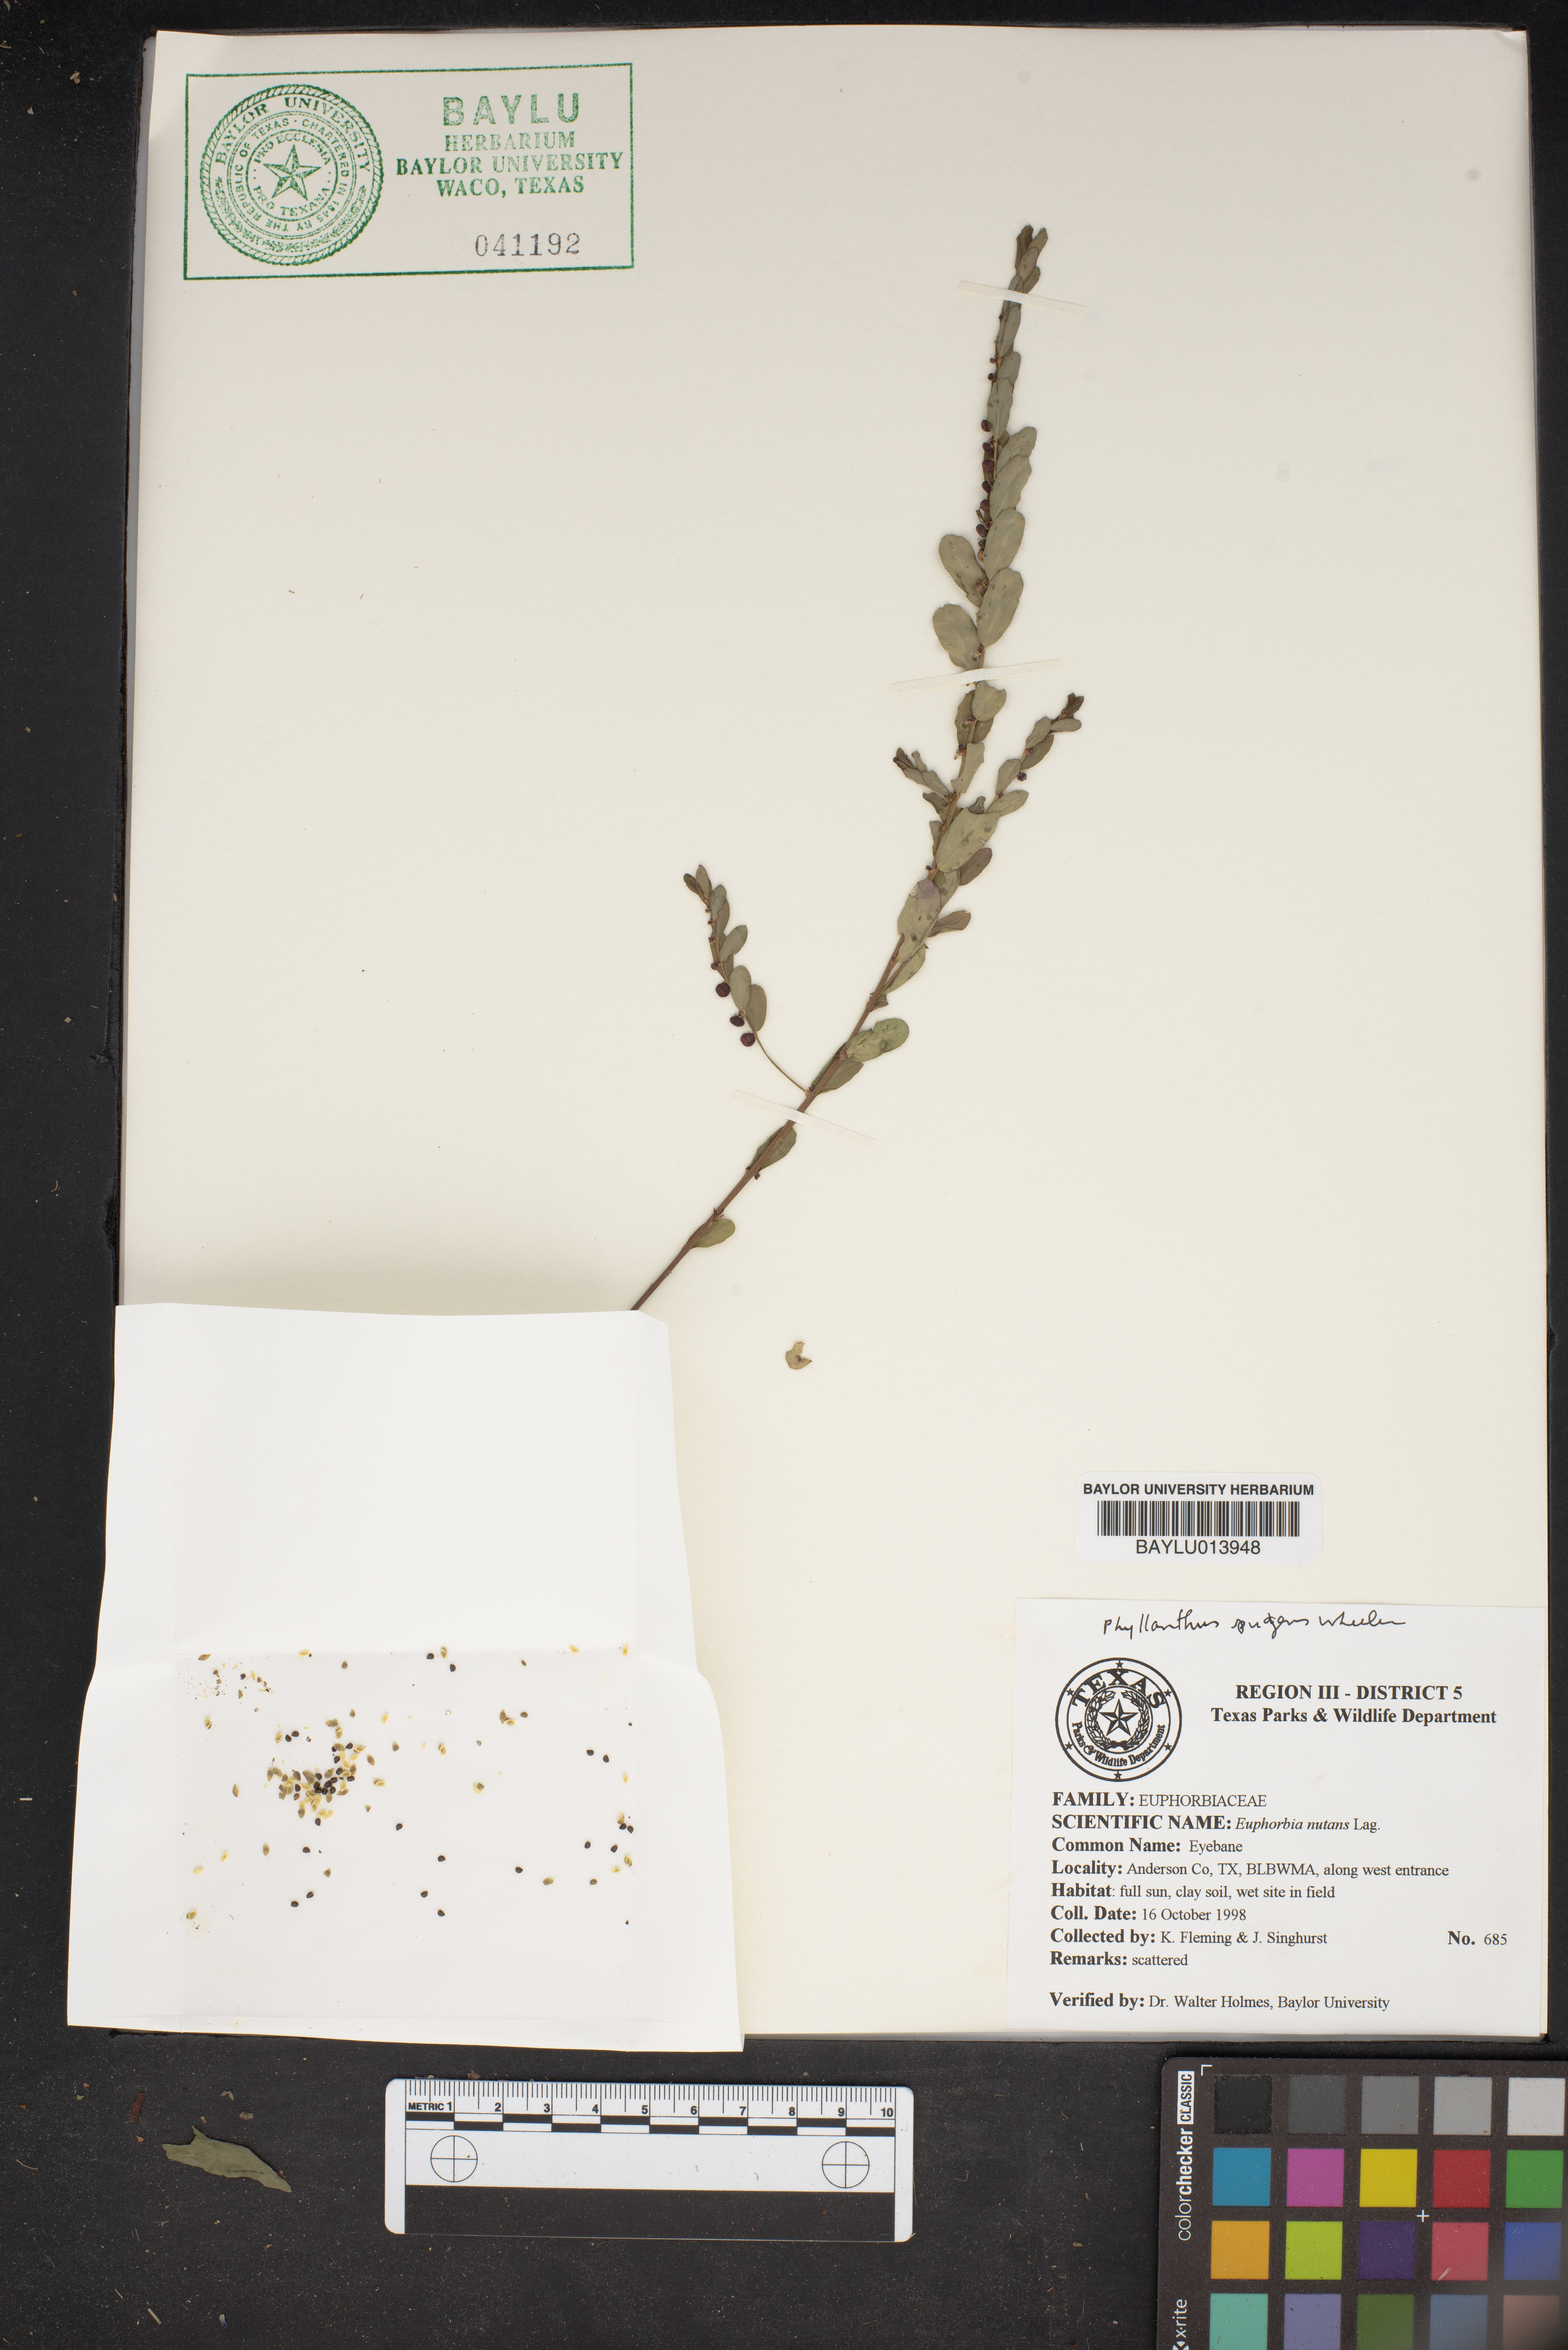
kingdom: Plantae
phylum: Tracheophyta
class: Magnoliopsida
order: Malpighiales
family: Euphorbiaceae
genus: Euphorbia
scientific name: Euphorbia nutans
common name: Eyebane
